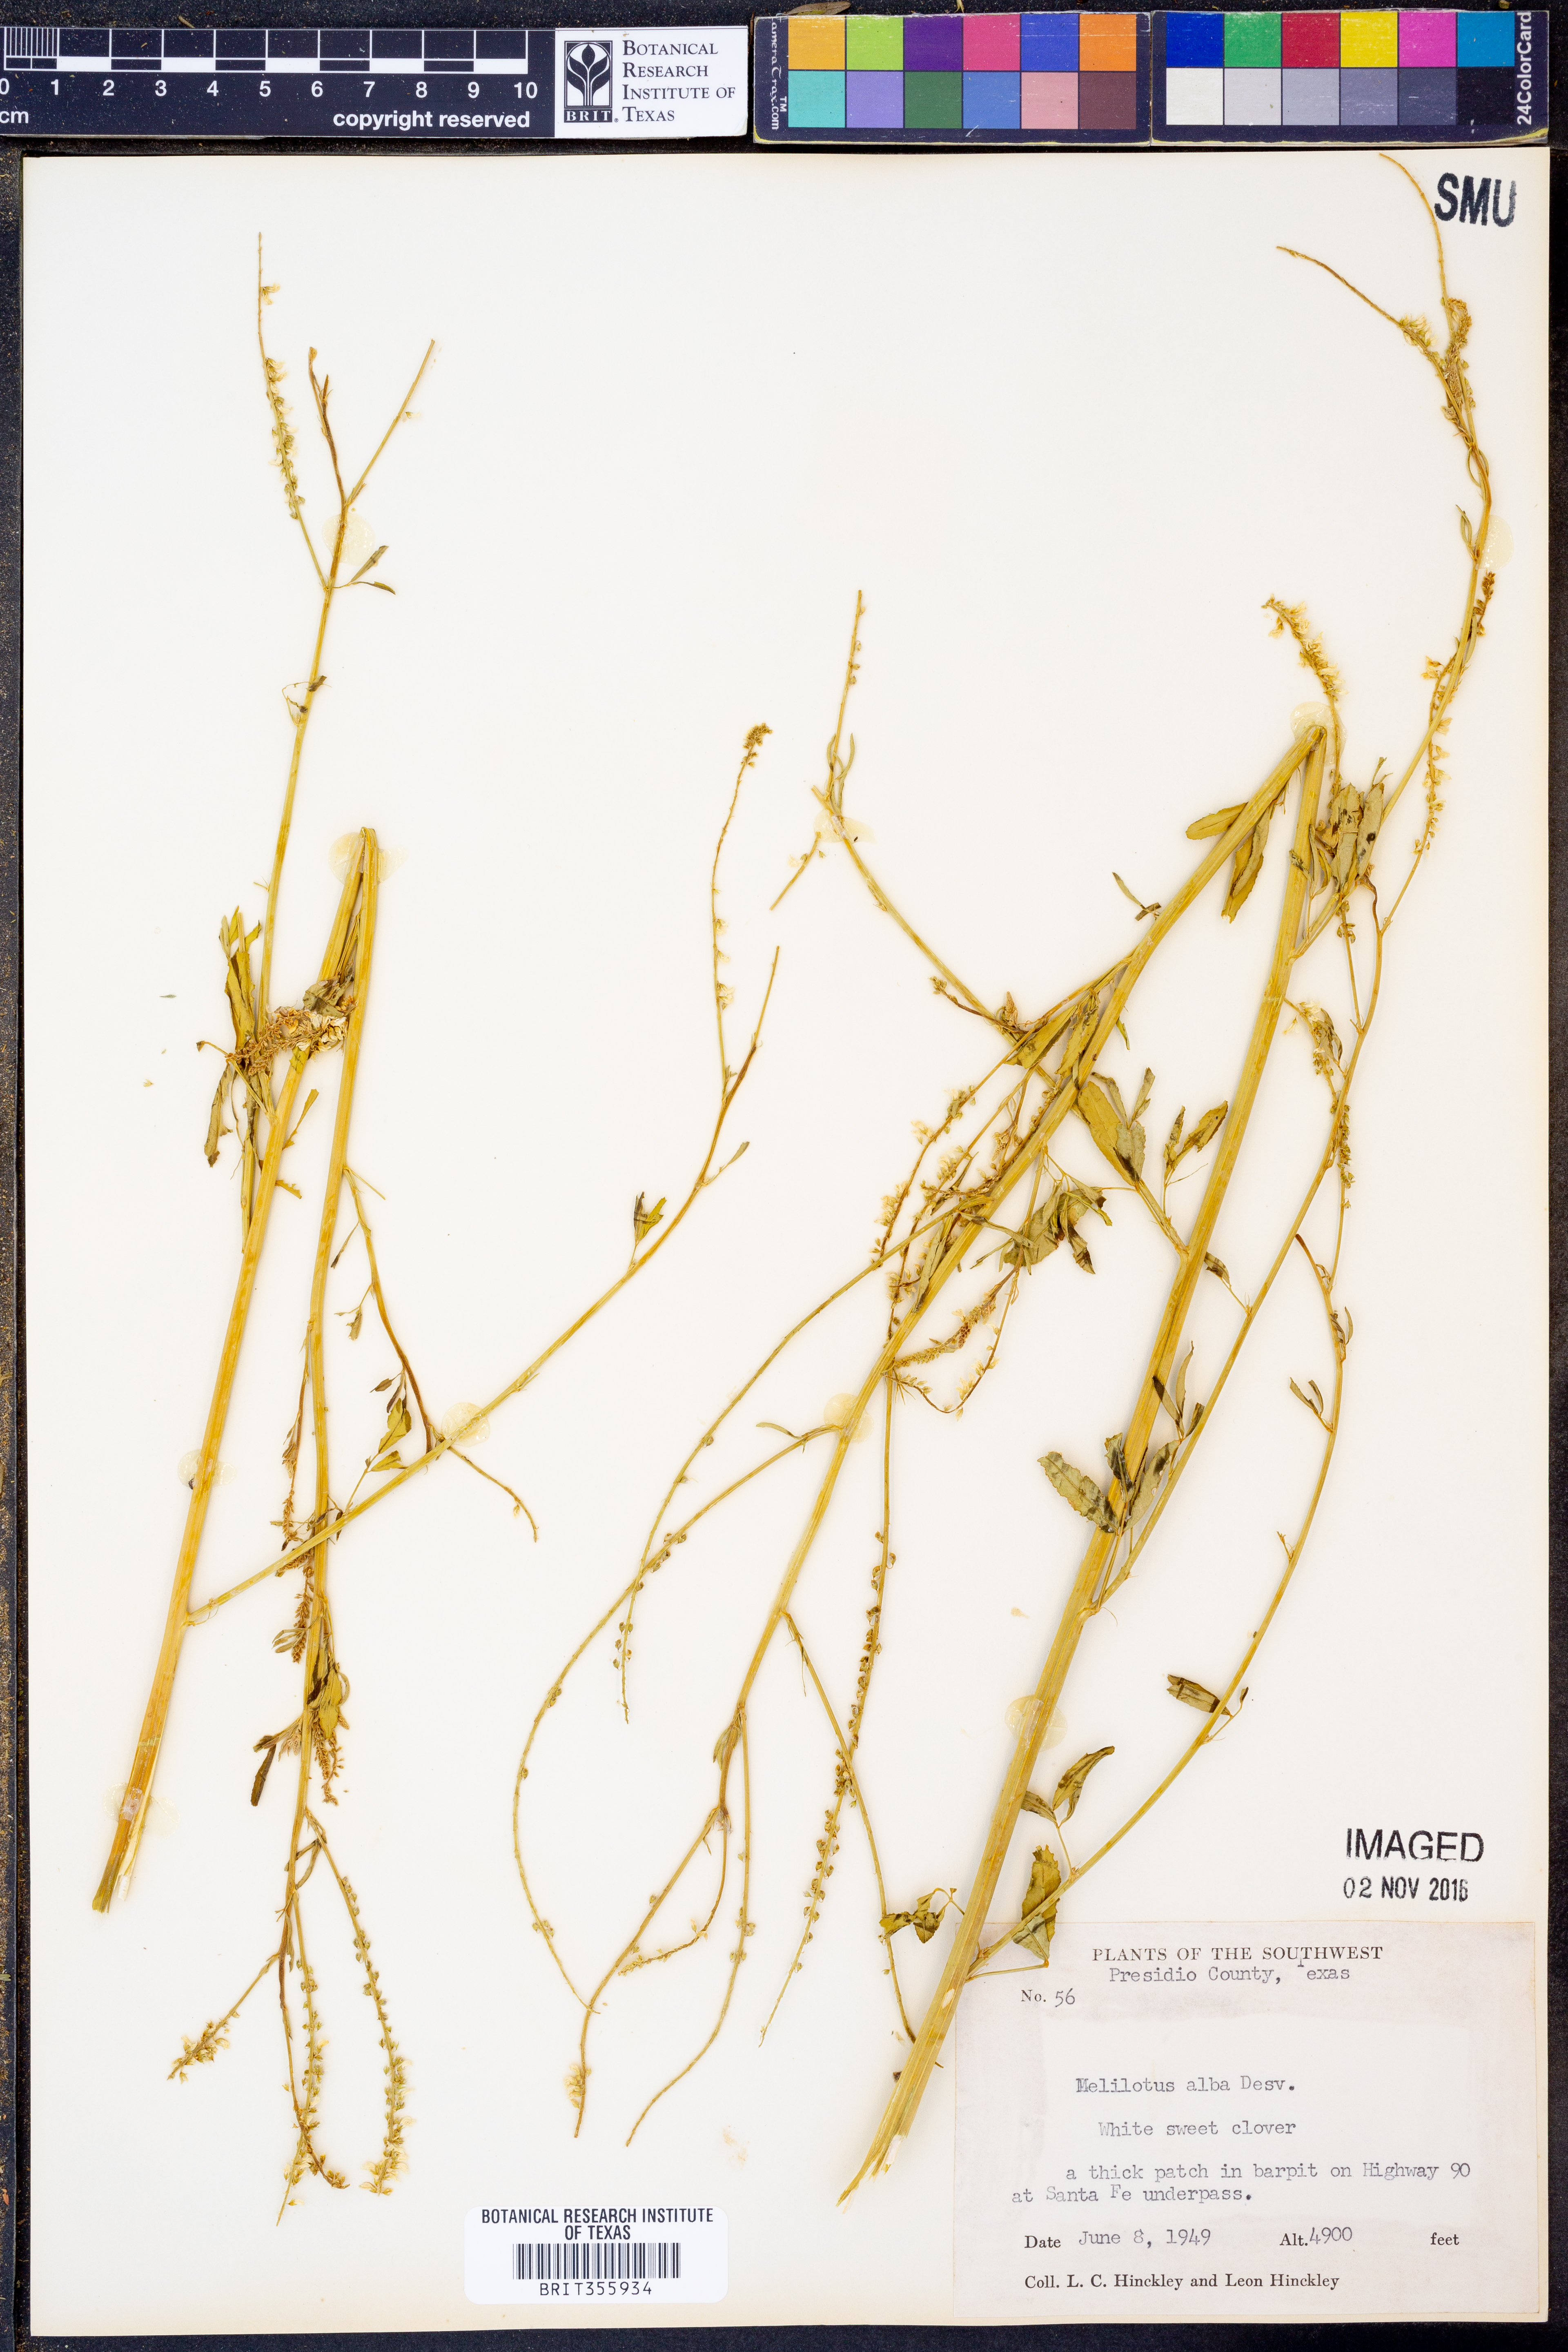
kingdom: Plantae
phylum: Tracheophyta
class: Magnoliopsida
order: Fabales
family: Fabaceae
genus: Melilotus
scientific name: Melilotus albus
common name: White melilot
